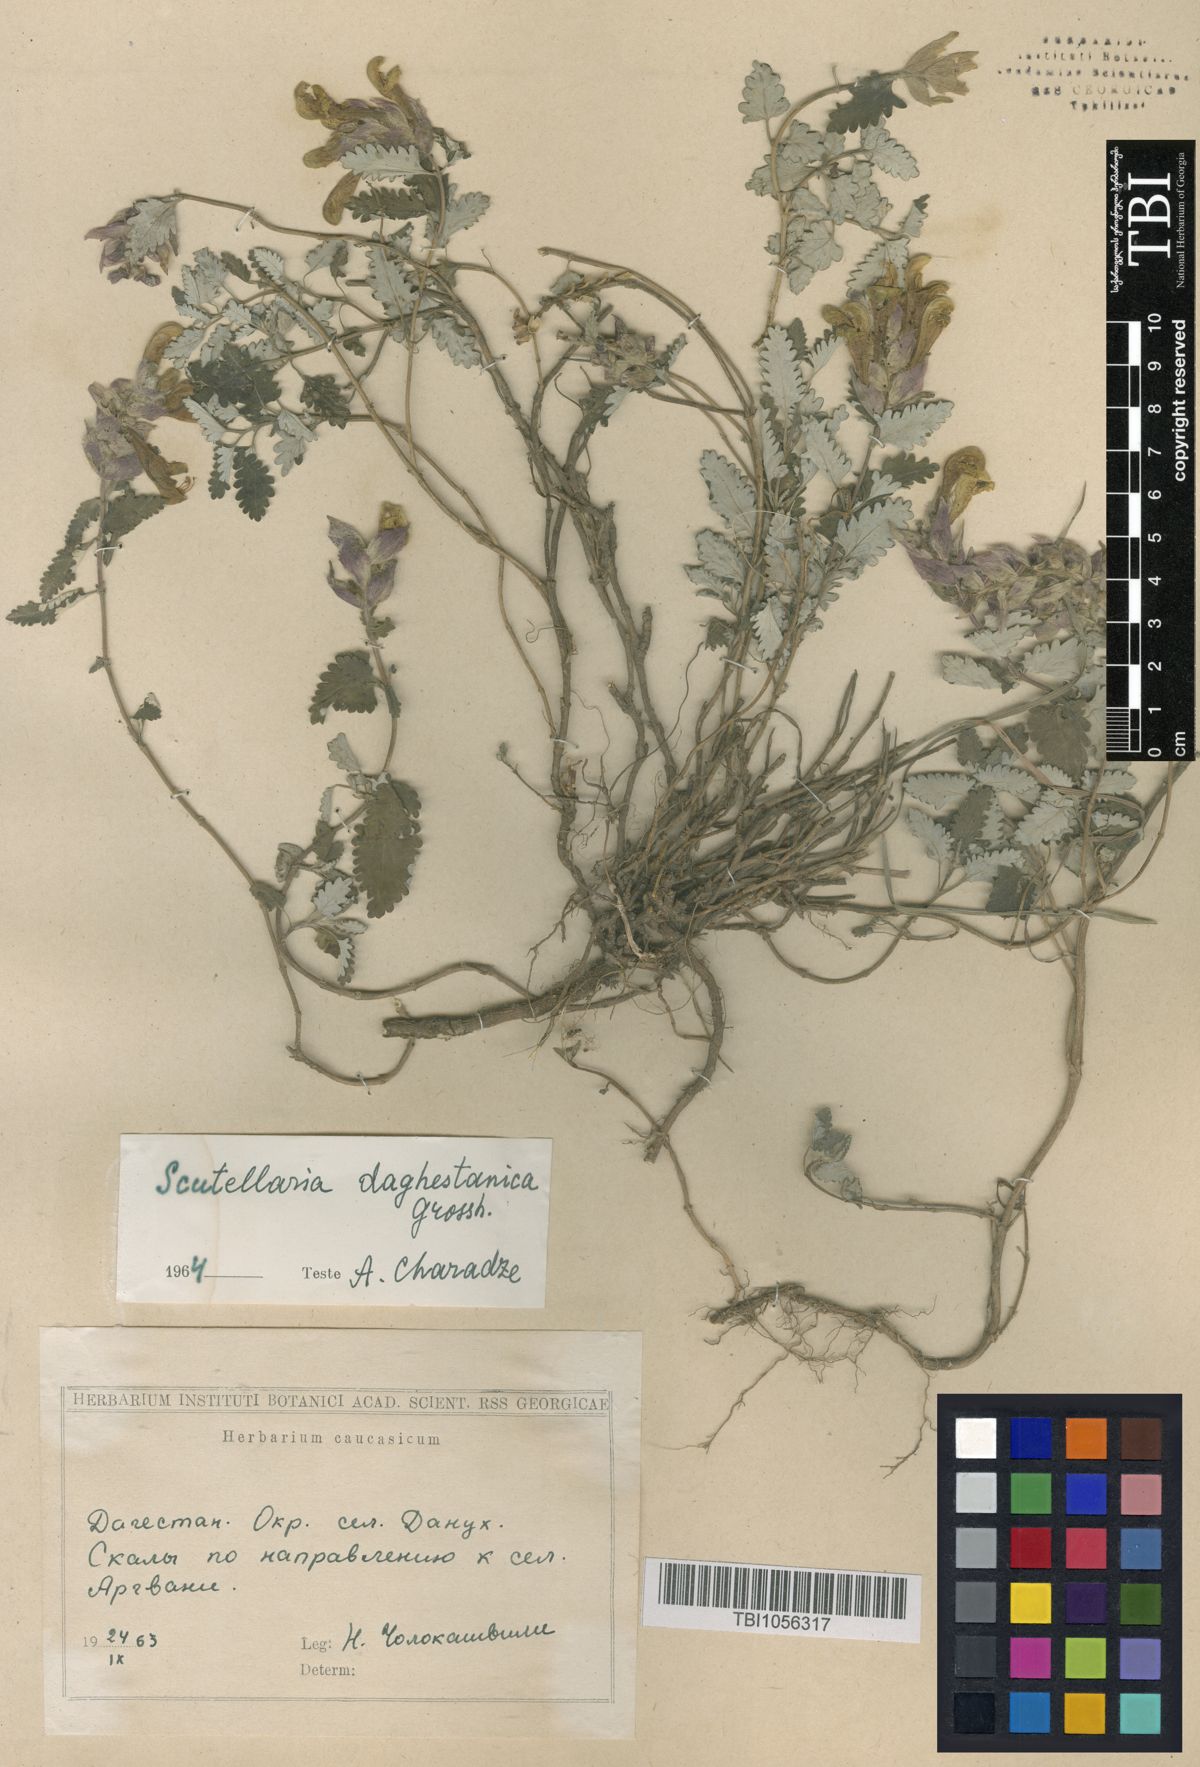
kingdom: Plantae
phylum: Tracheophyta
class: Magnoliopsida
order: Lamiales
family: Lamiaceae
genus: Scutellaria
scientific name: Scutellaria daghestanica
